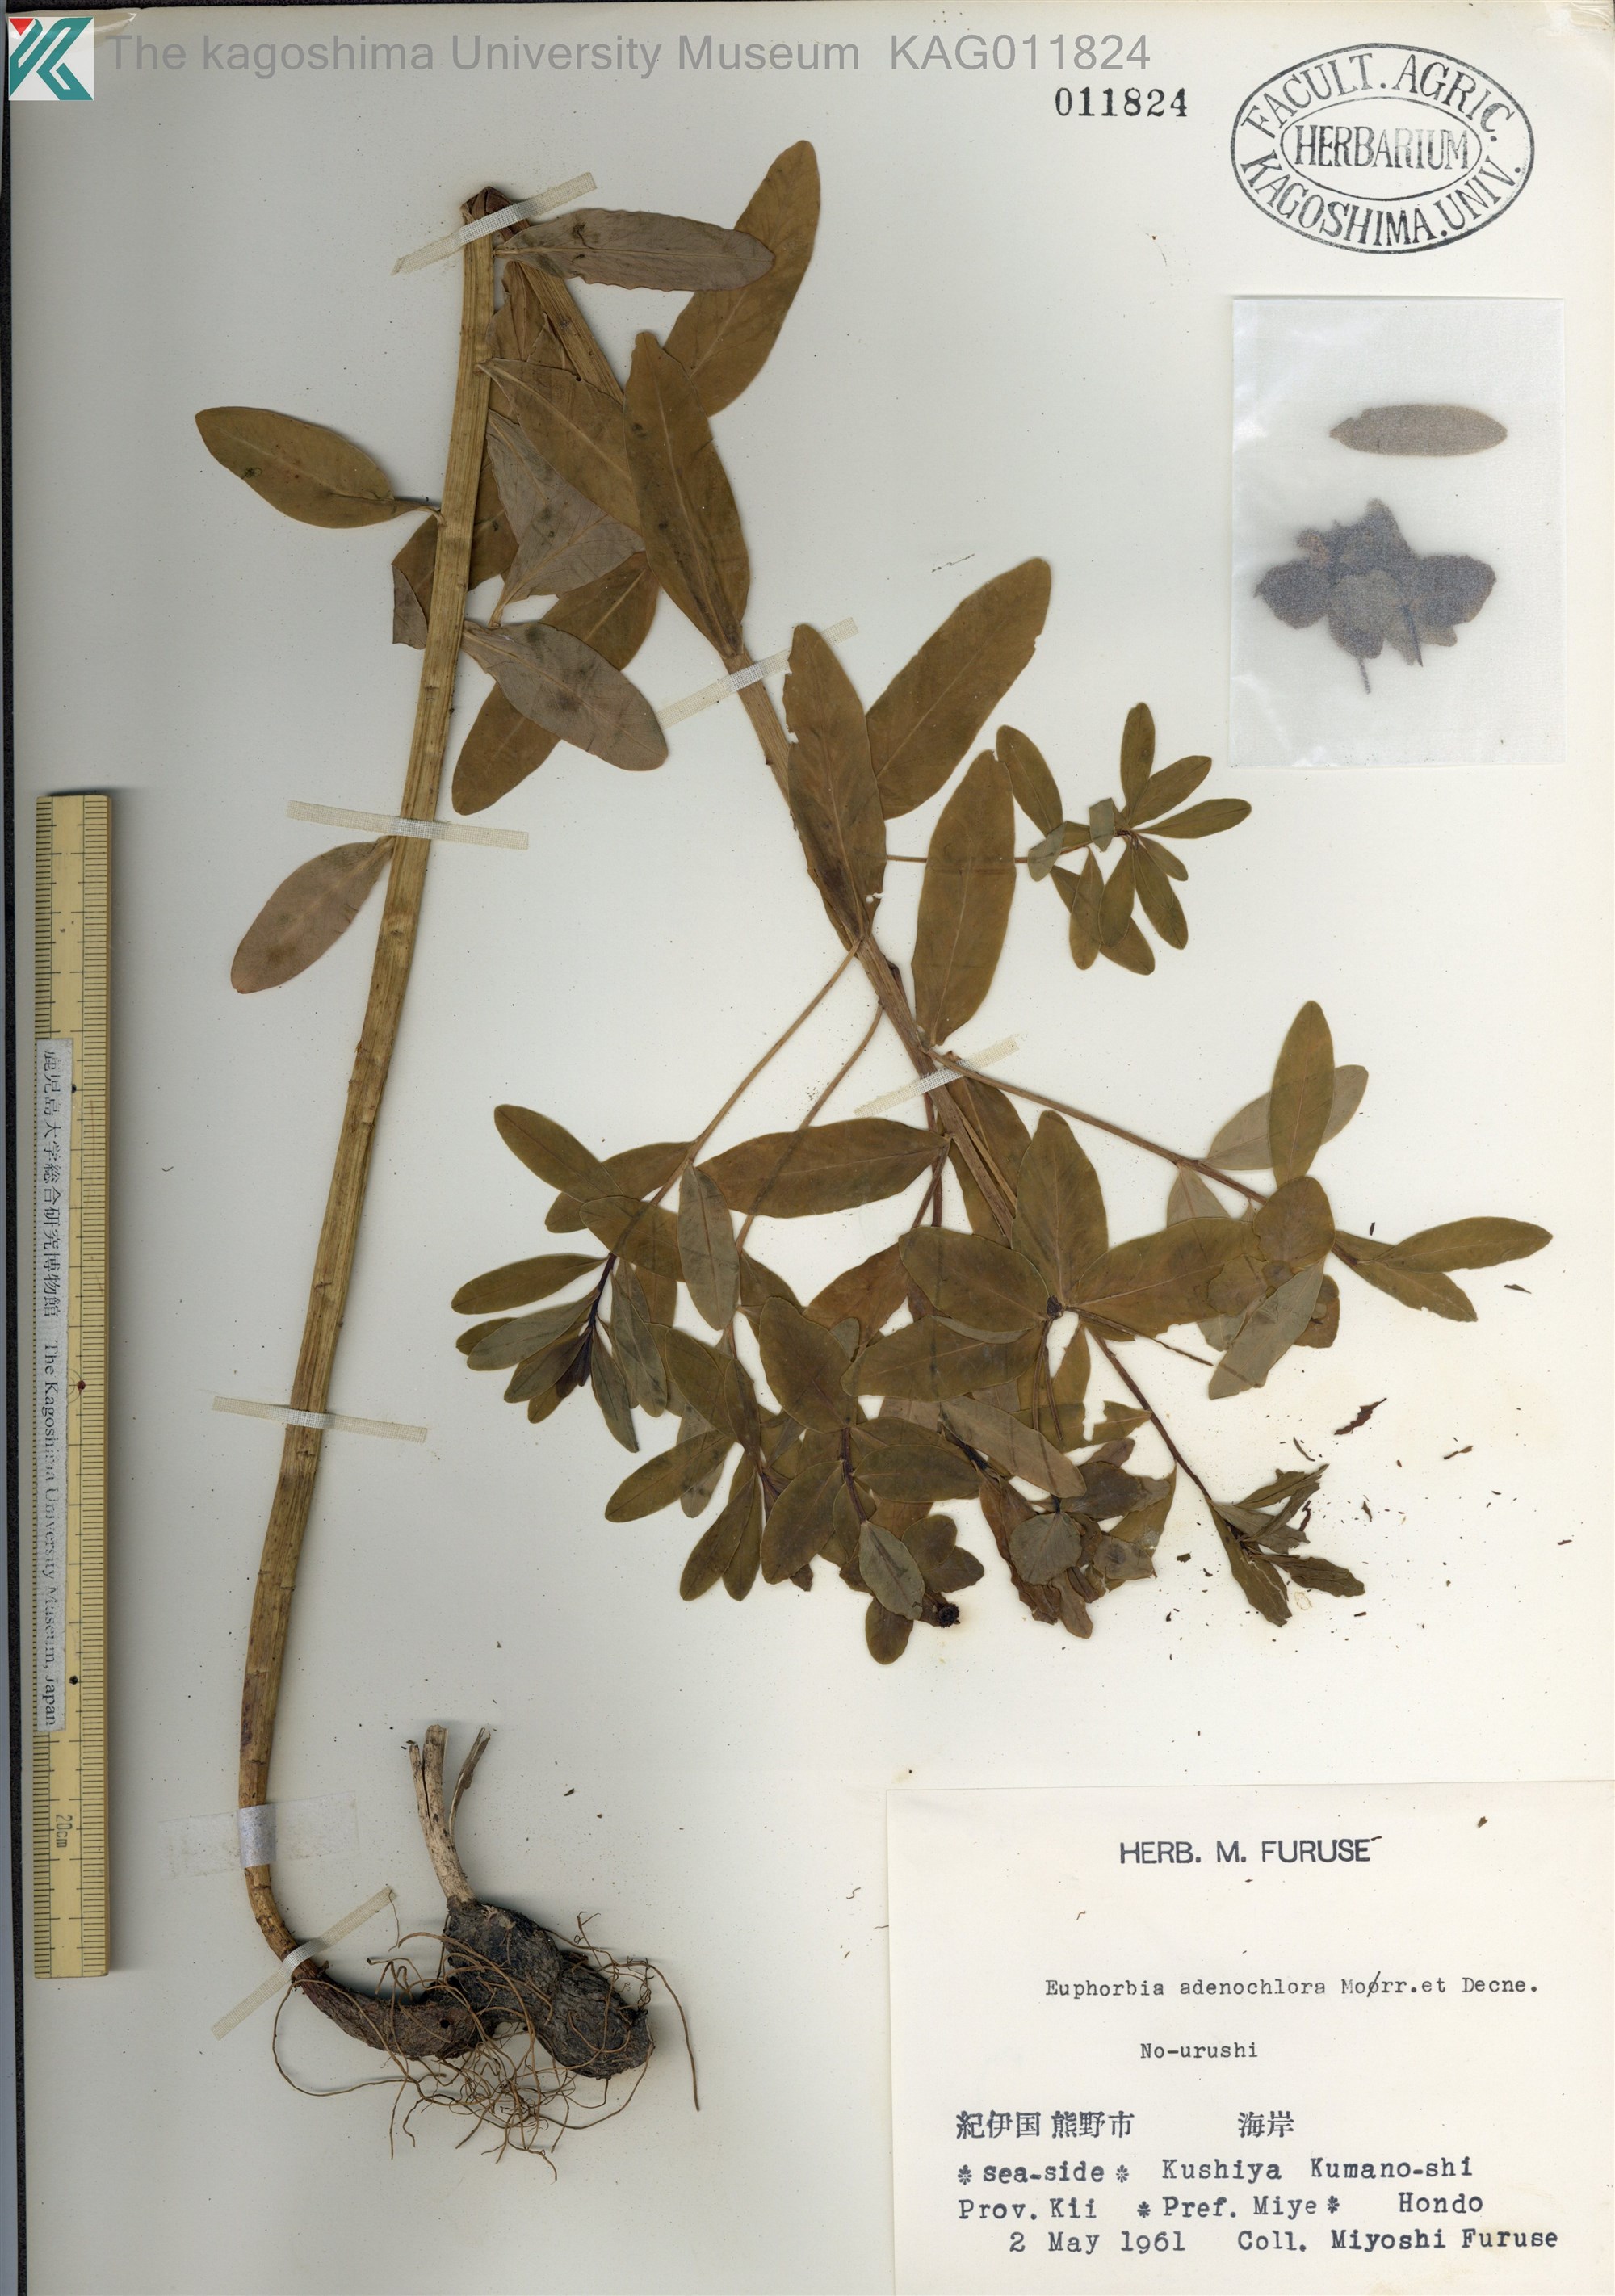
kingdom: Plantae
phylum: Tracheophyta
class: Magnoliopsida
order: Malpighiales
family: Euphorbiaceae
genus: Euphorbia
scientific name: Euphorbia adenochlora
